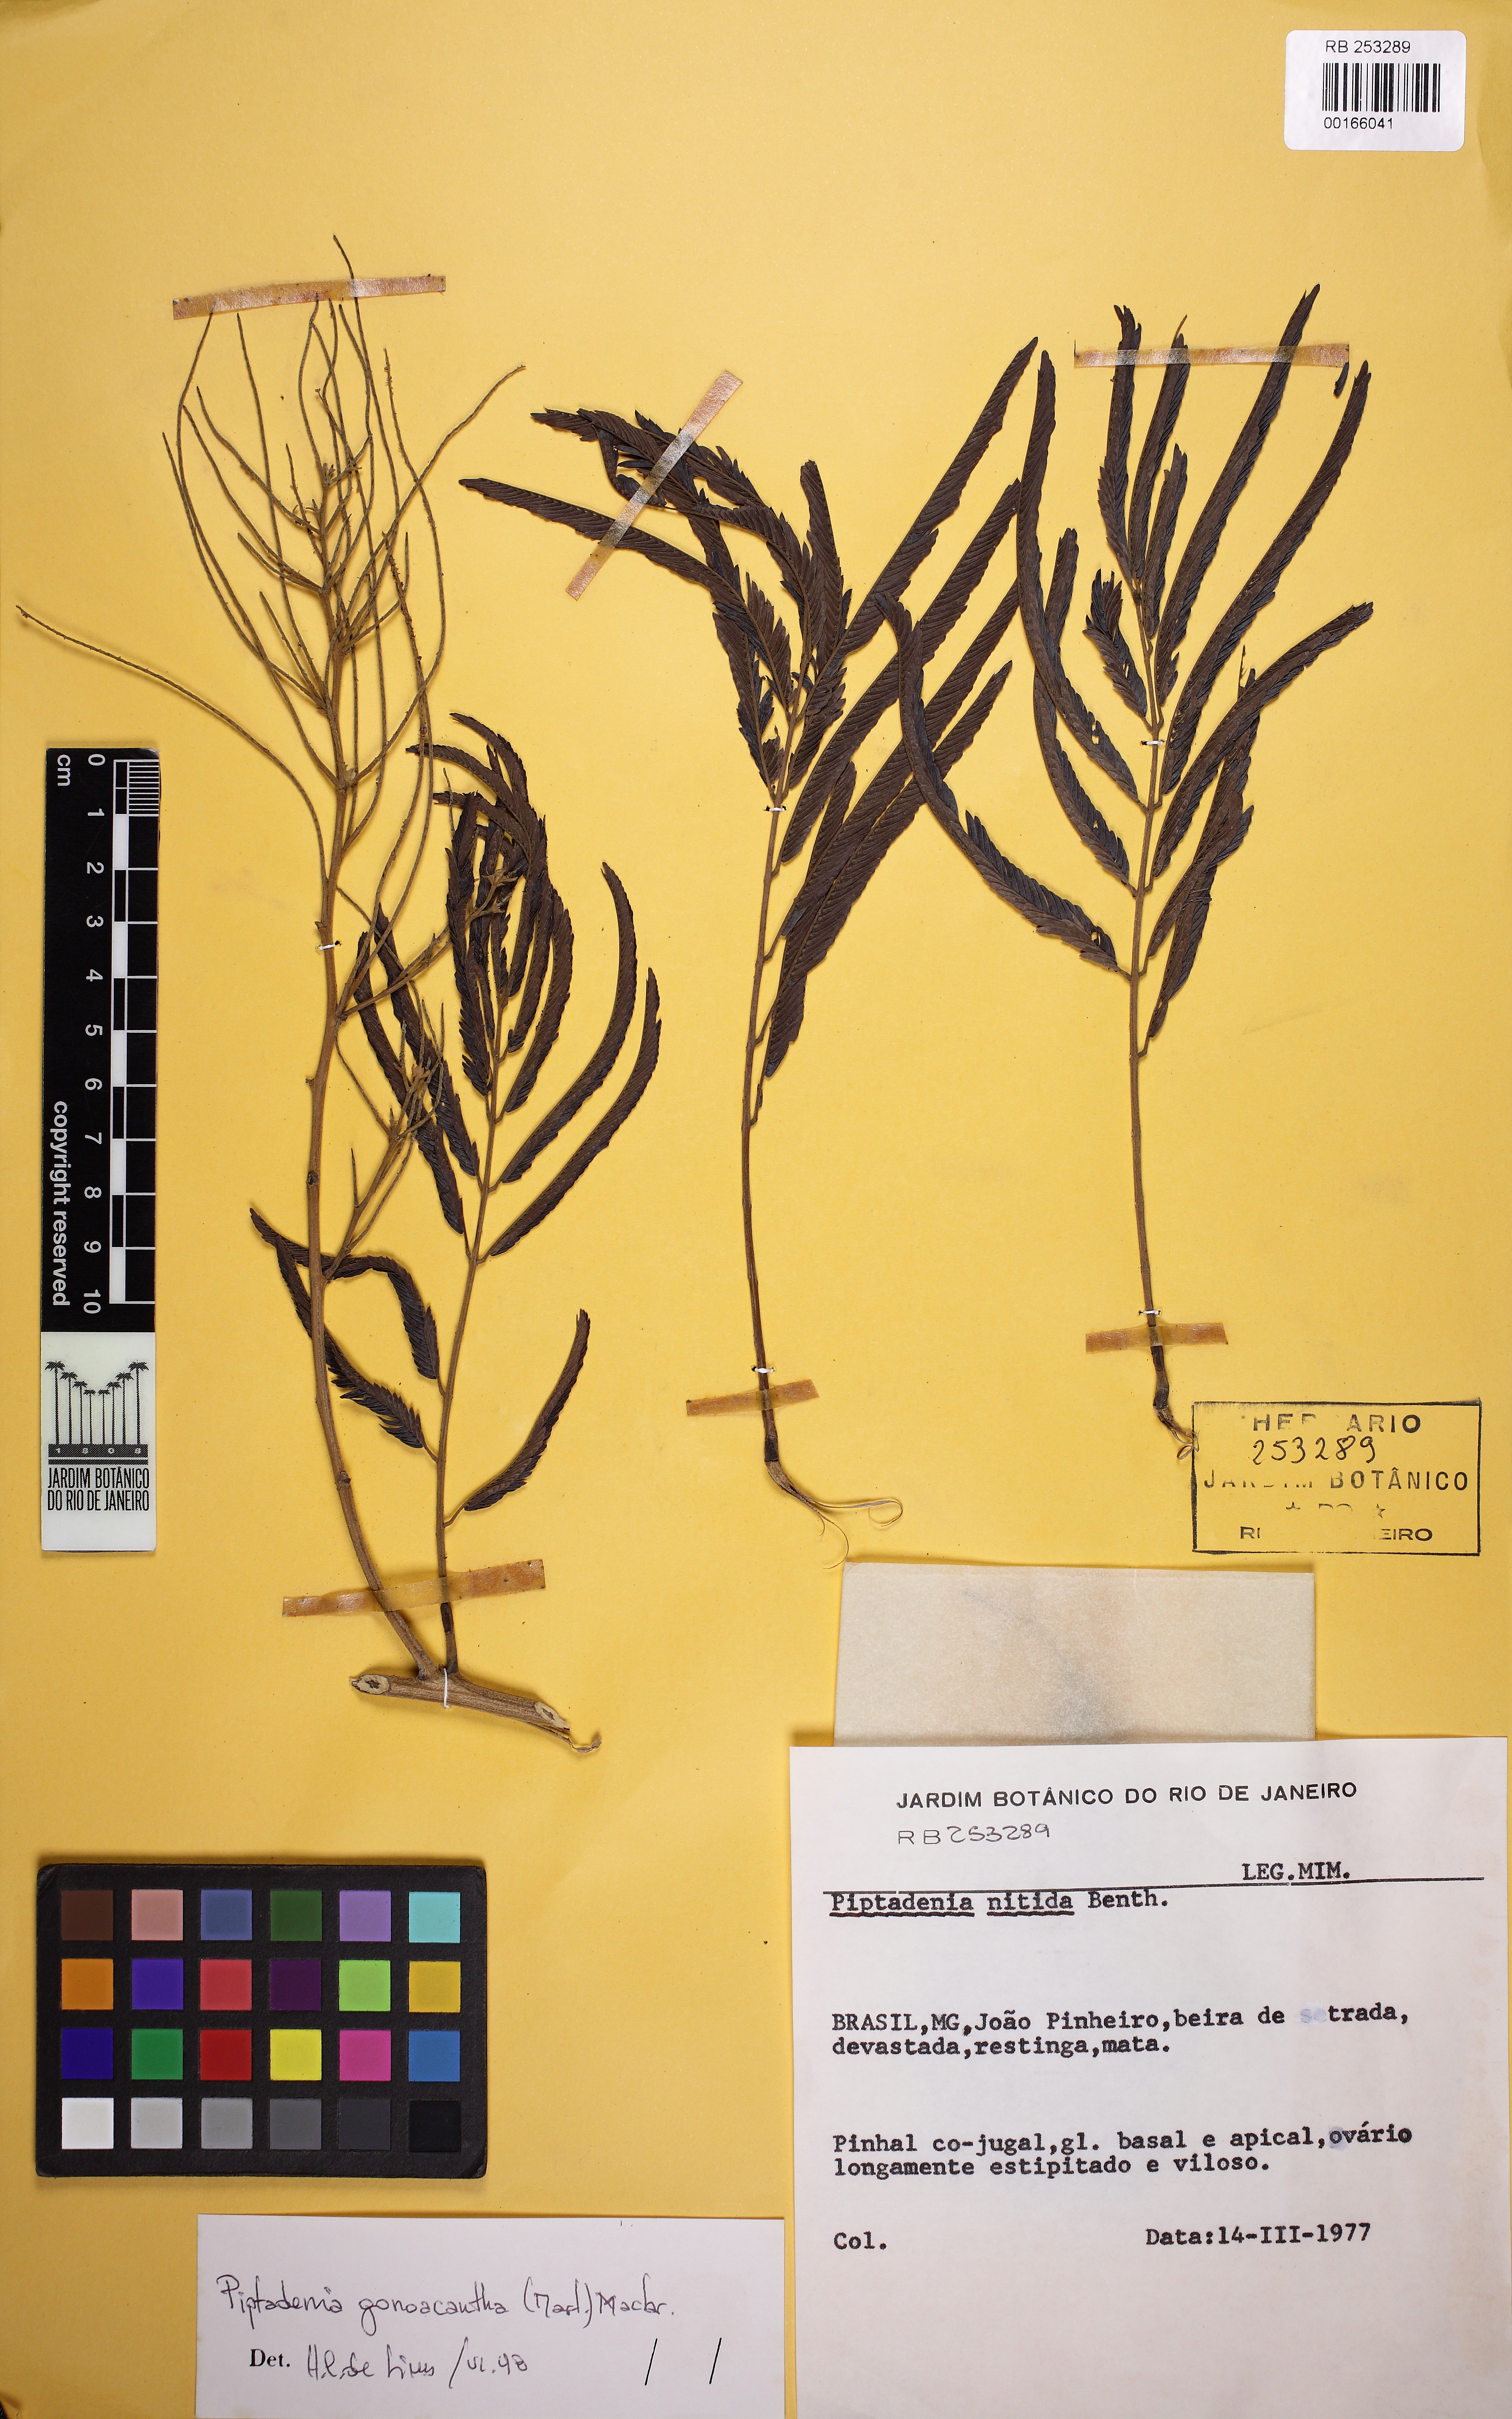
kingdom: Plantae
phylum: Tracheophyta
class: Magnoliopsida
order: Fabales
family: Fabaceae
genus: Piptadenia
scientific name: Piptadenia gonoacantha
